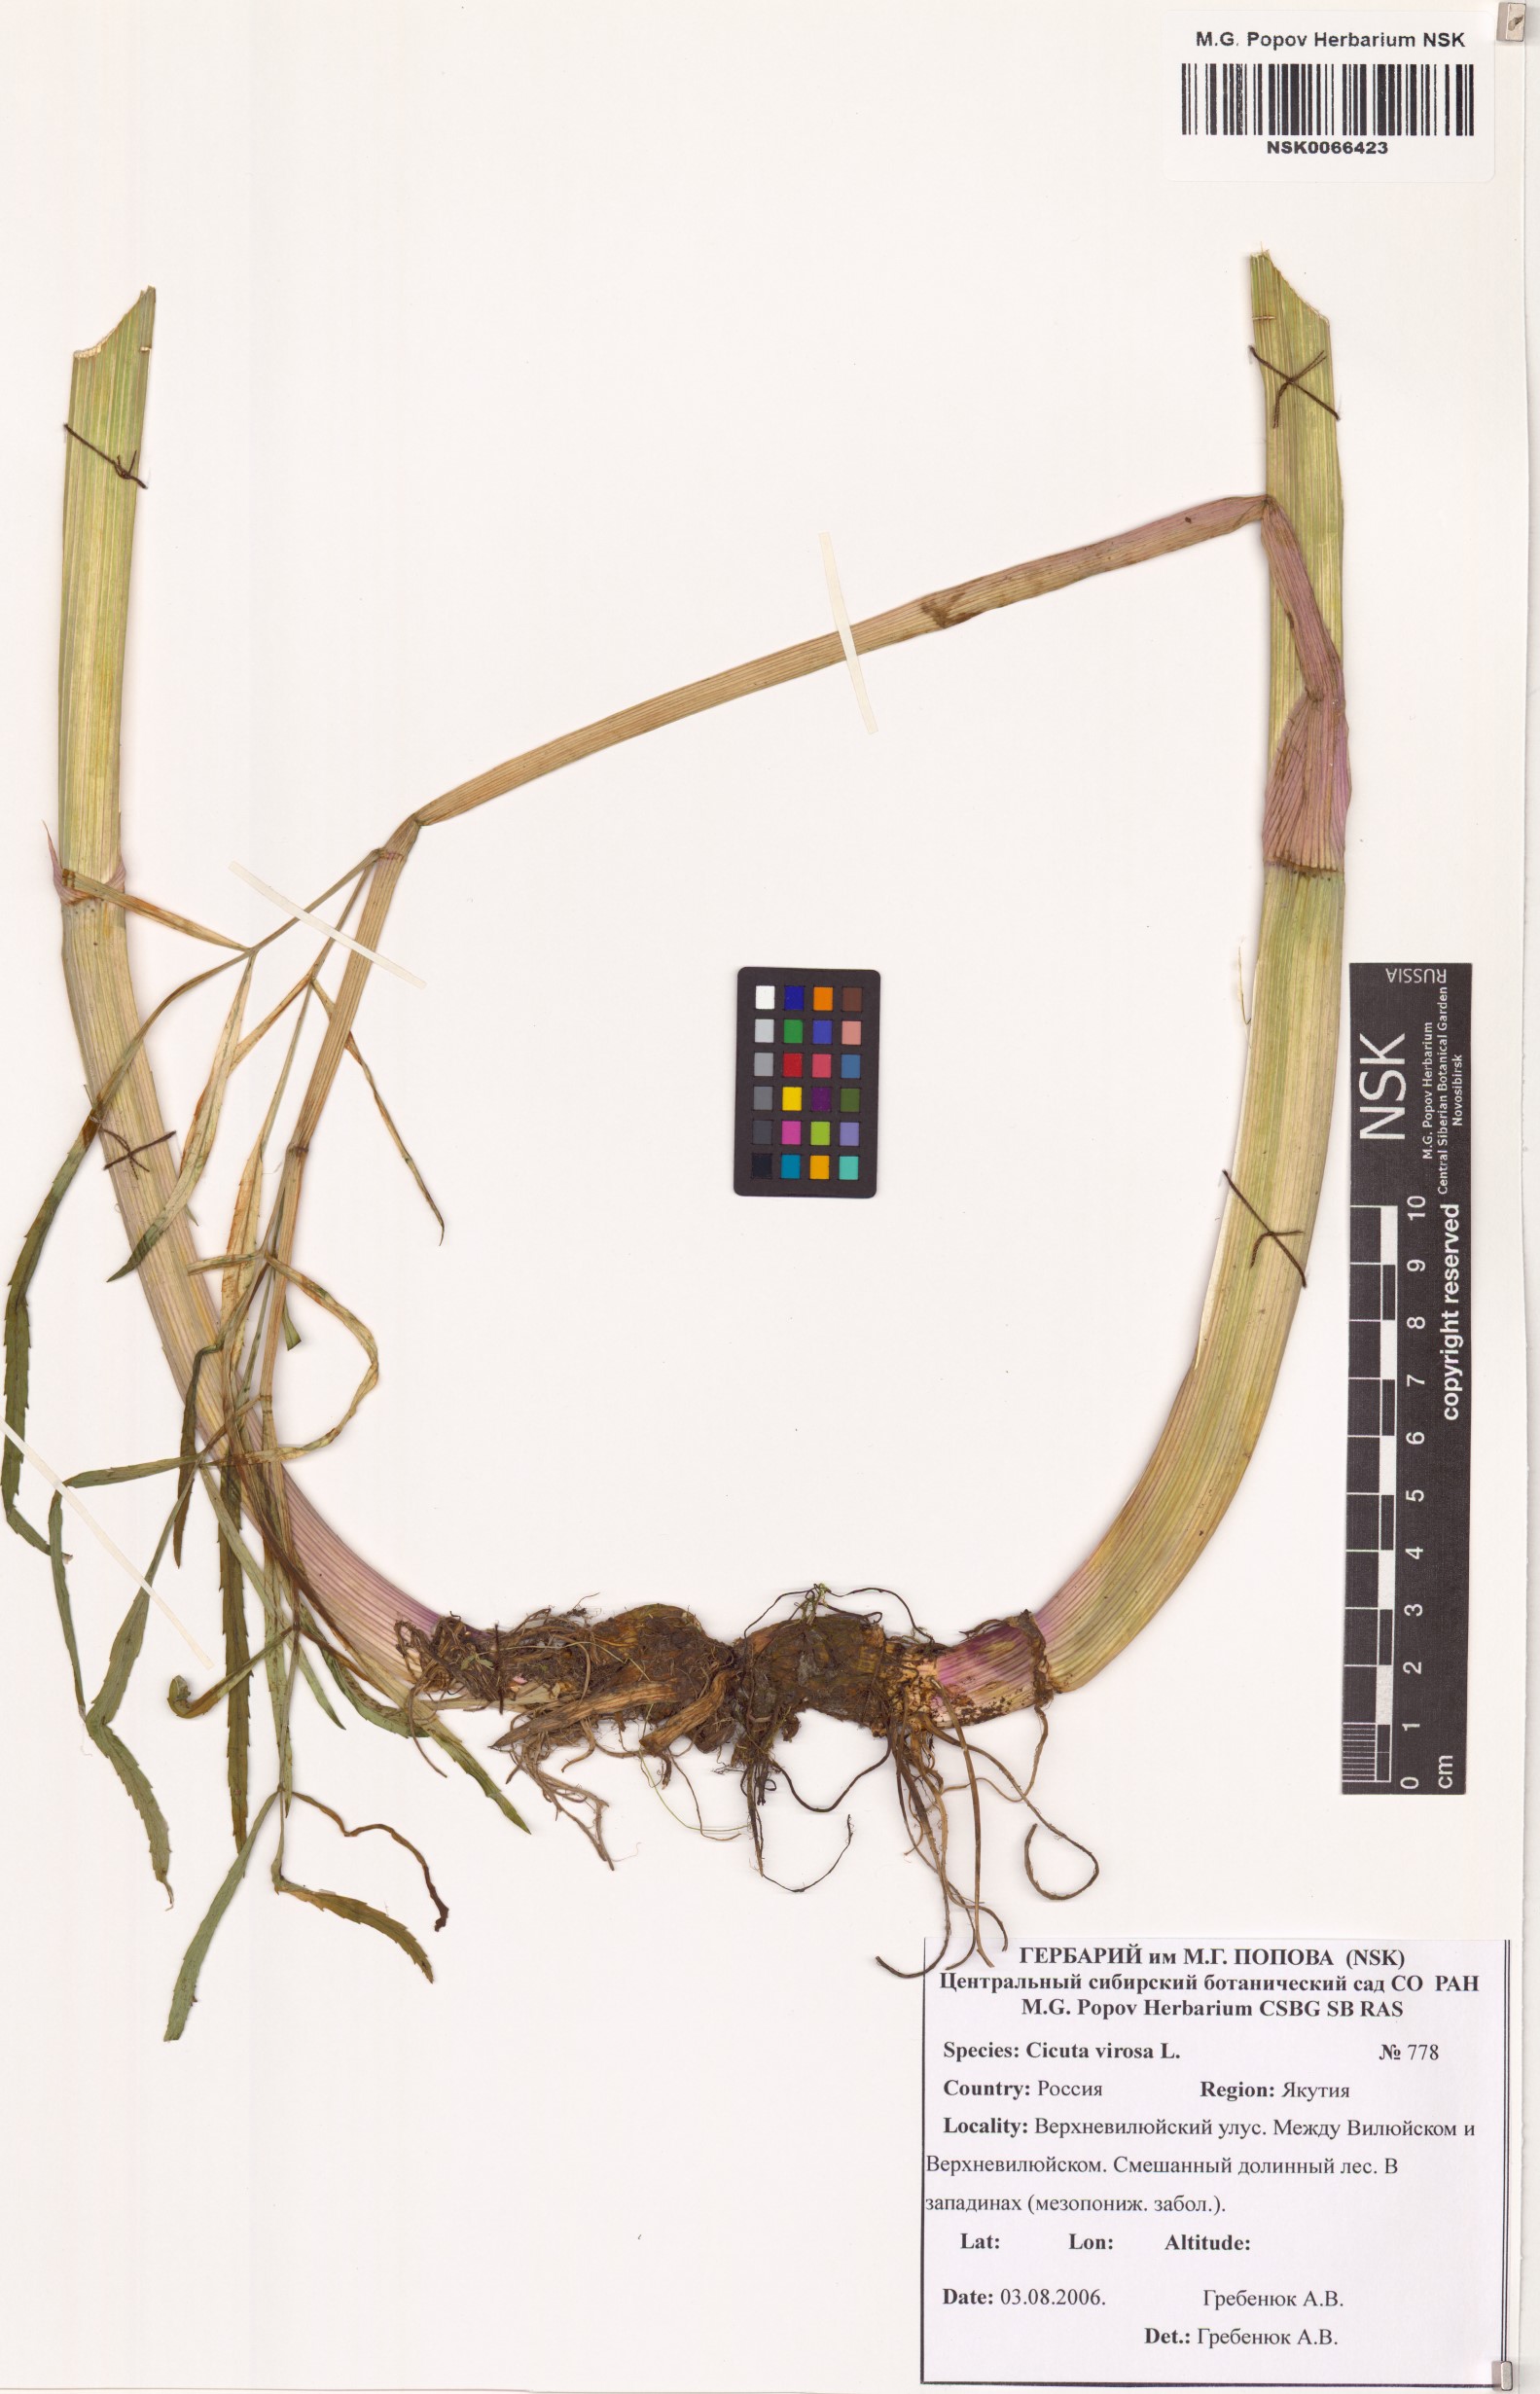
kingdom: Plantae
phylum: Tracheophyta
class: Magnoliopsida
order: Apiales
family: Apiaceae
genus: Cicuta
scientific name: Cicuta virosa
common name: Cowbane
